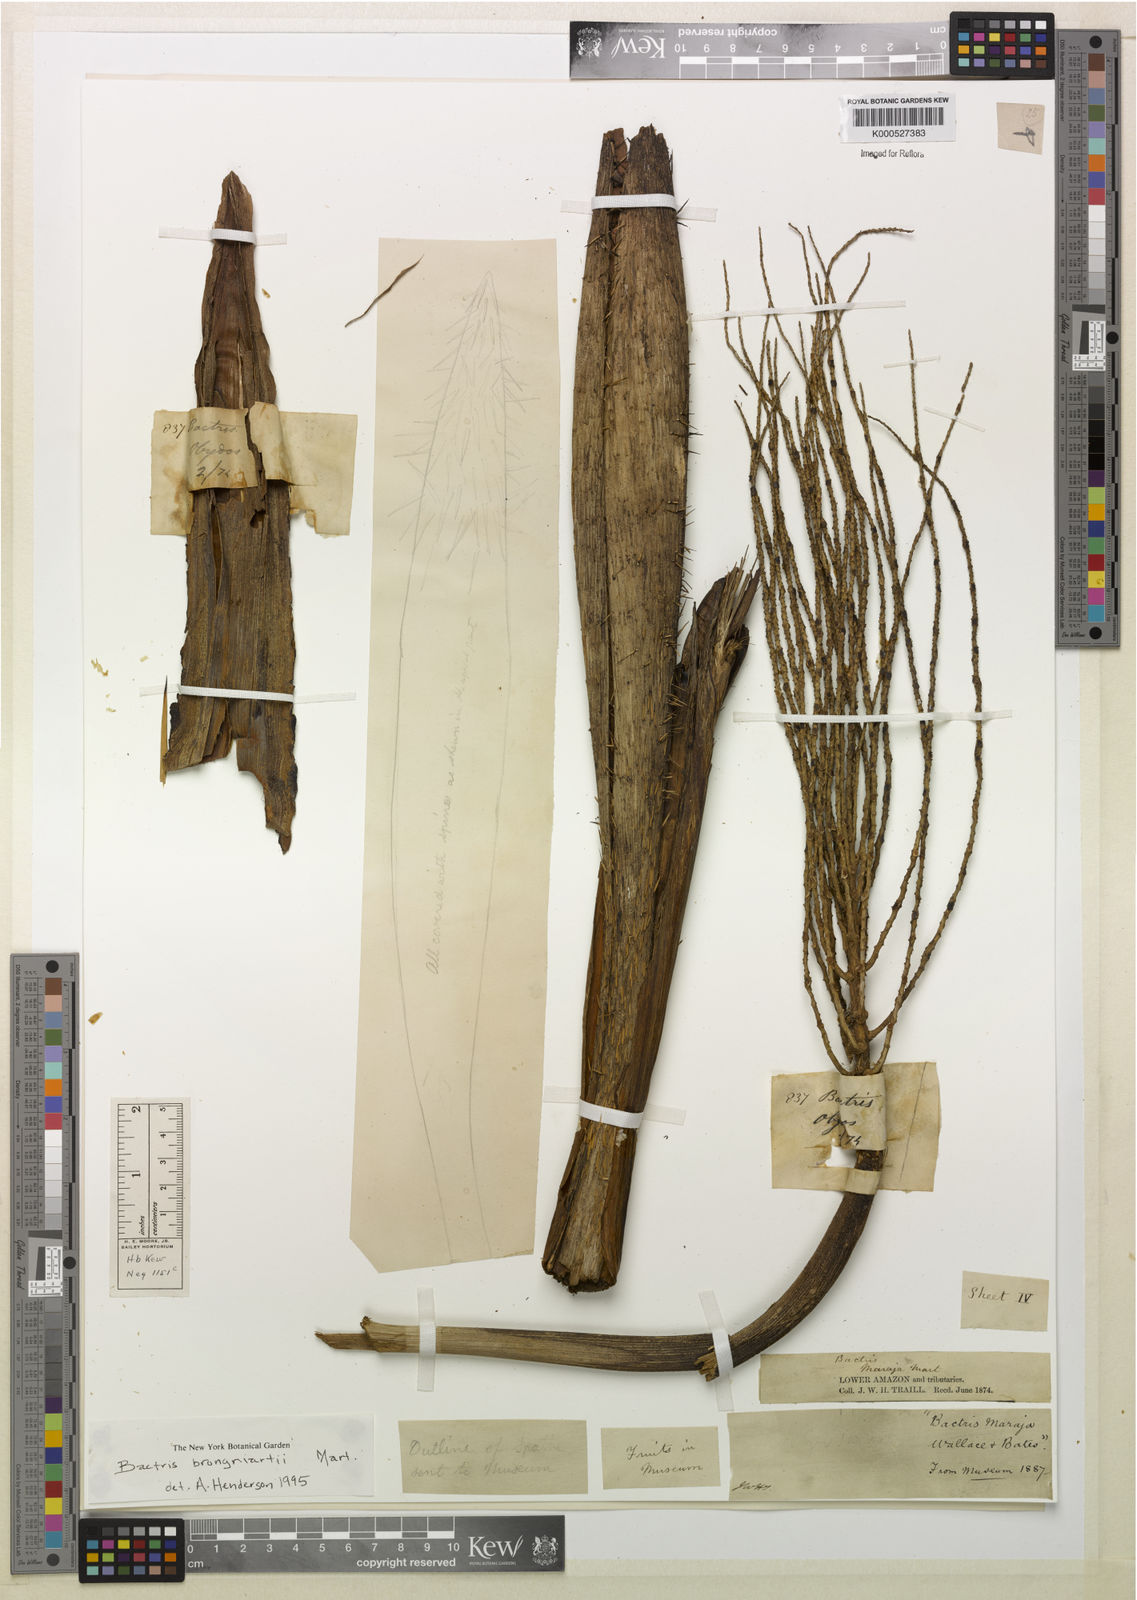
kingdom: Plantae
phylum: Tracheophyta
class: Liliopsida
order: Arecales
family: Arecaceae
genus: Bactris
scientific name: Bactris brongniartii
